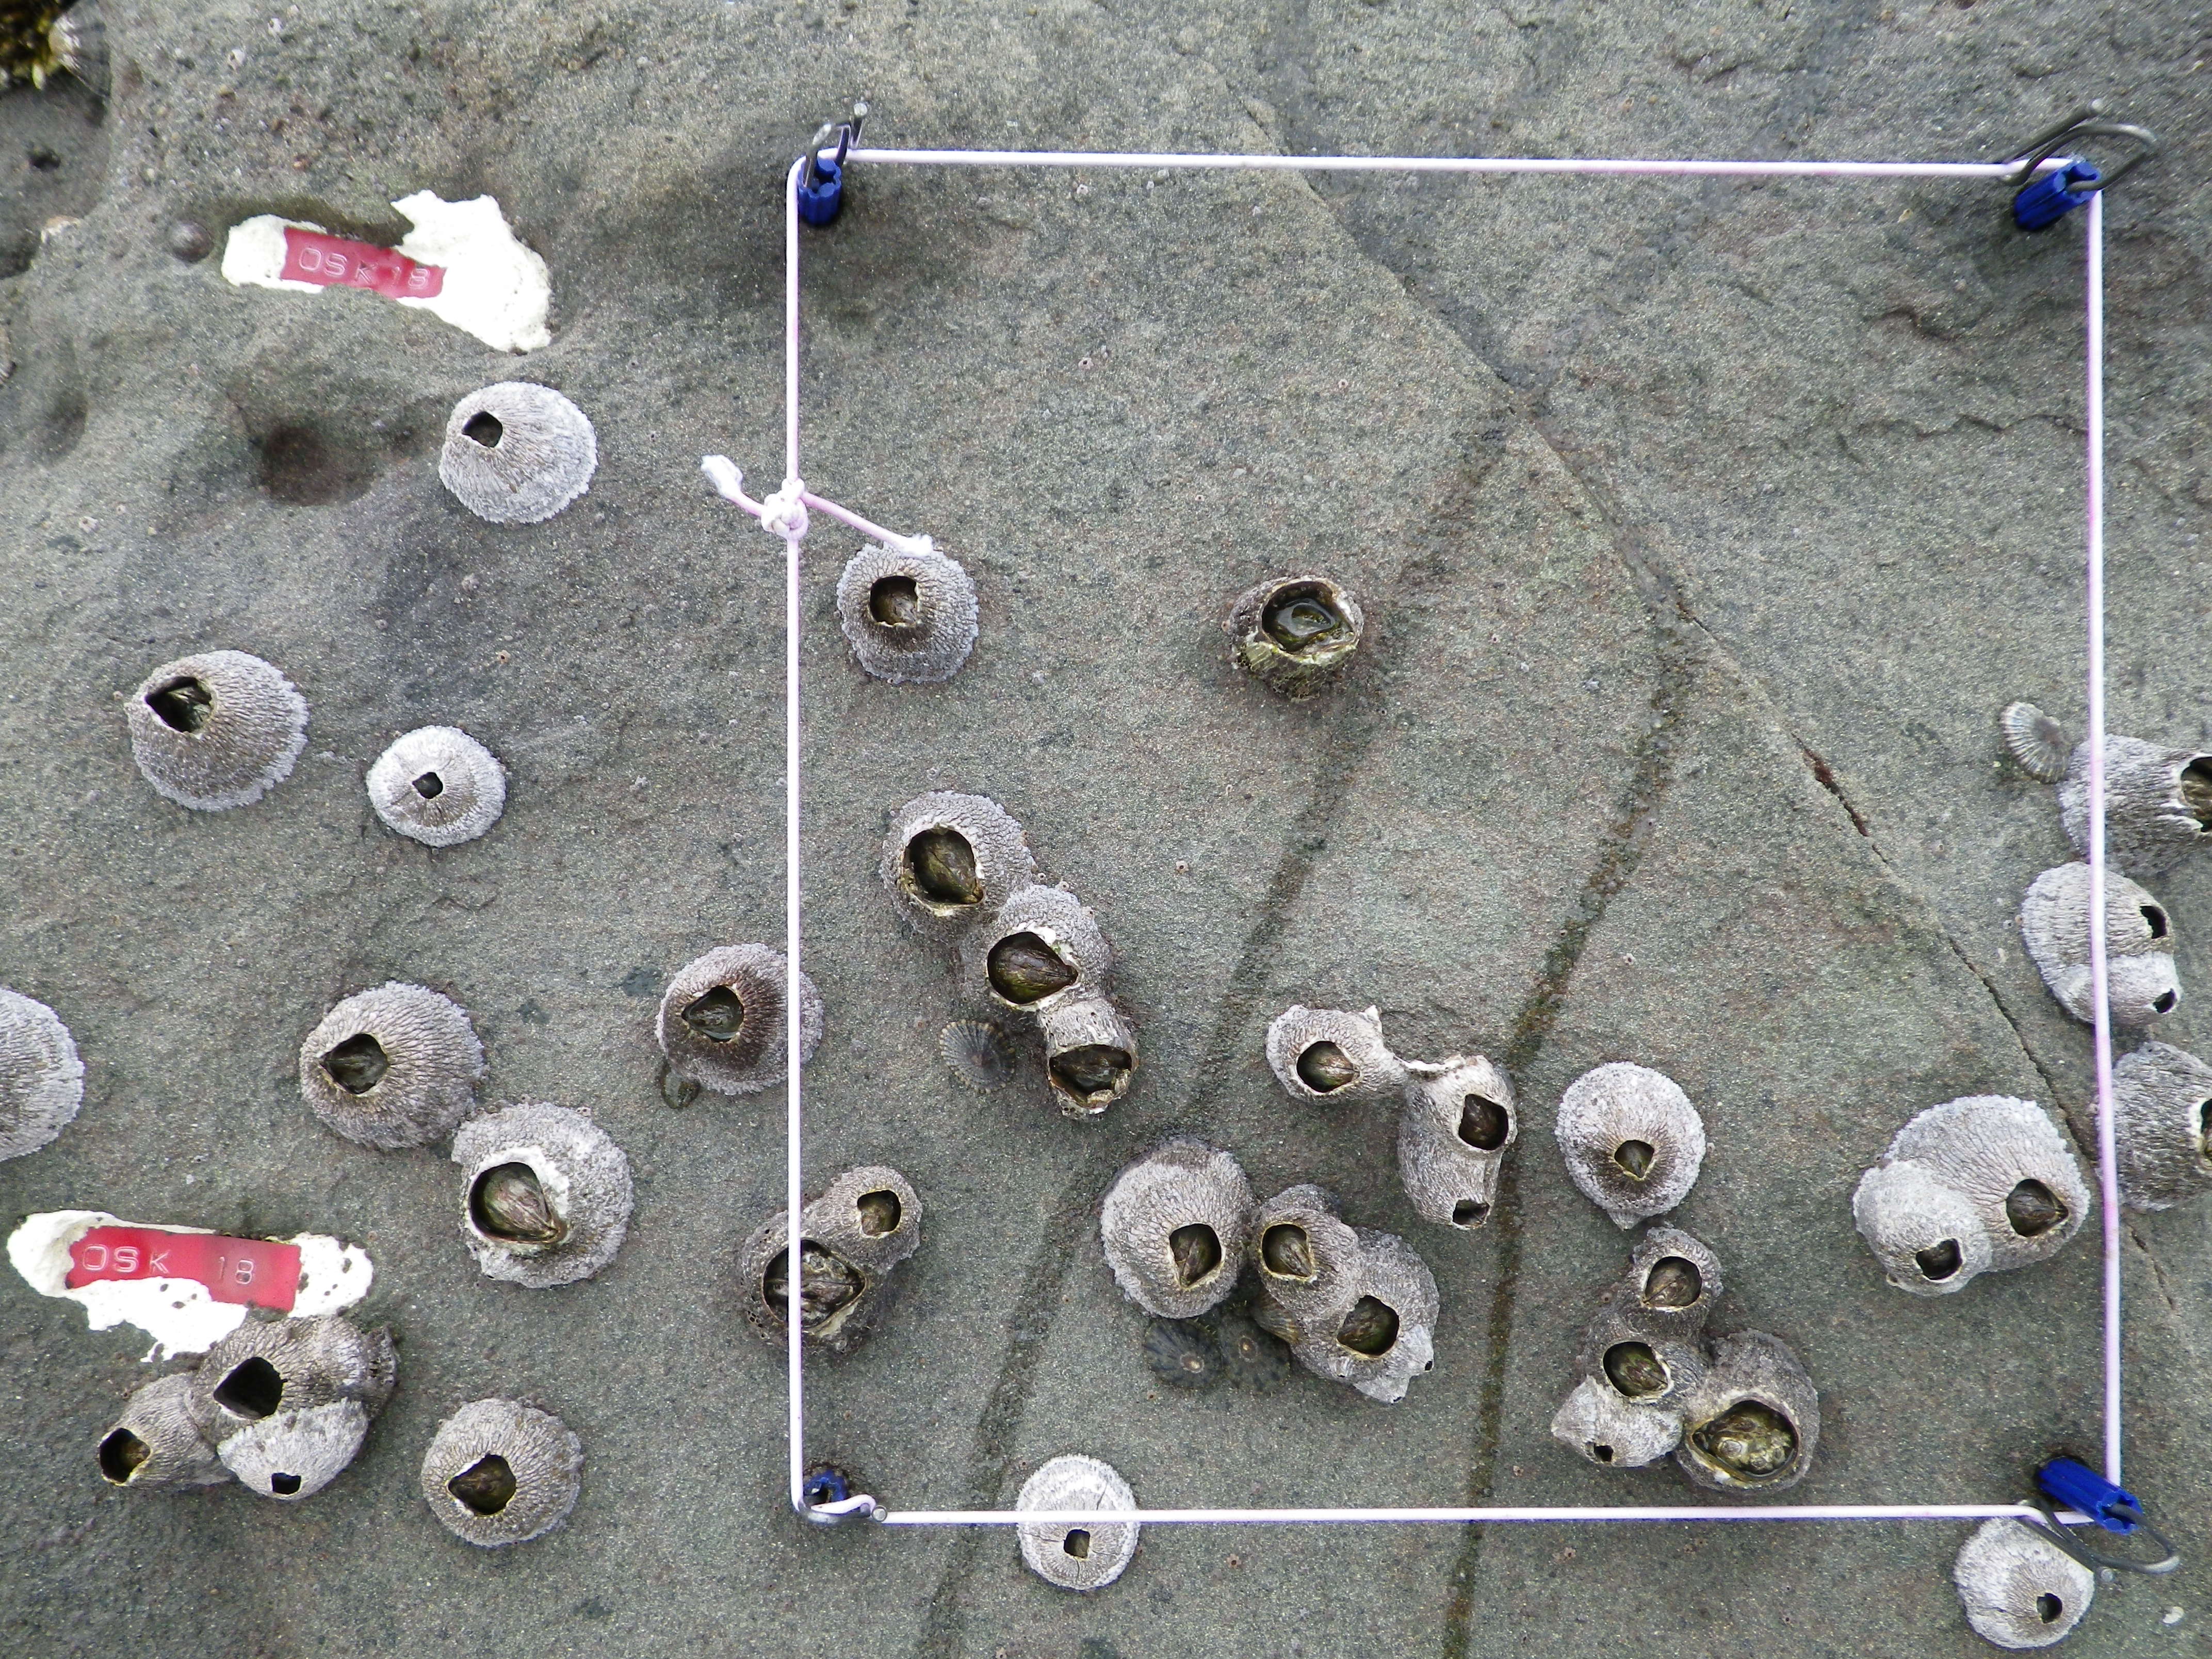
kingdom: Animalia
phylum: Arthropoda
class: Maxillopoda
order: Sessilia
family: Chthamalidae
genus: Chthamalus
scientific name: Chthamalus challengeri
